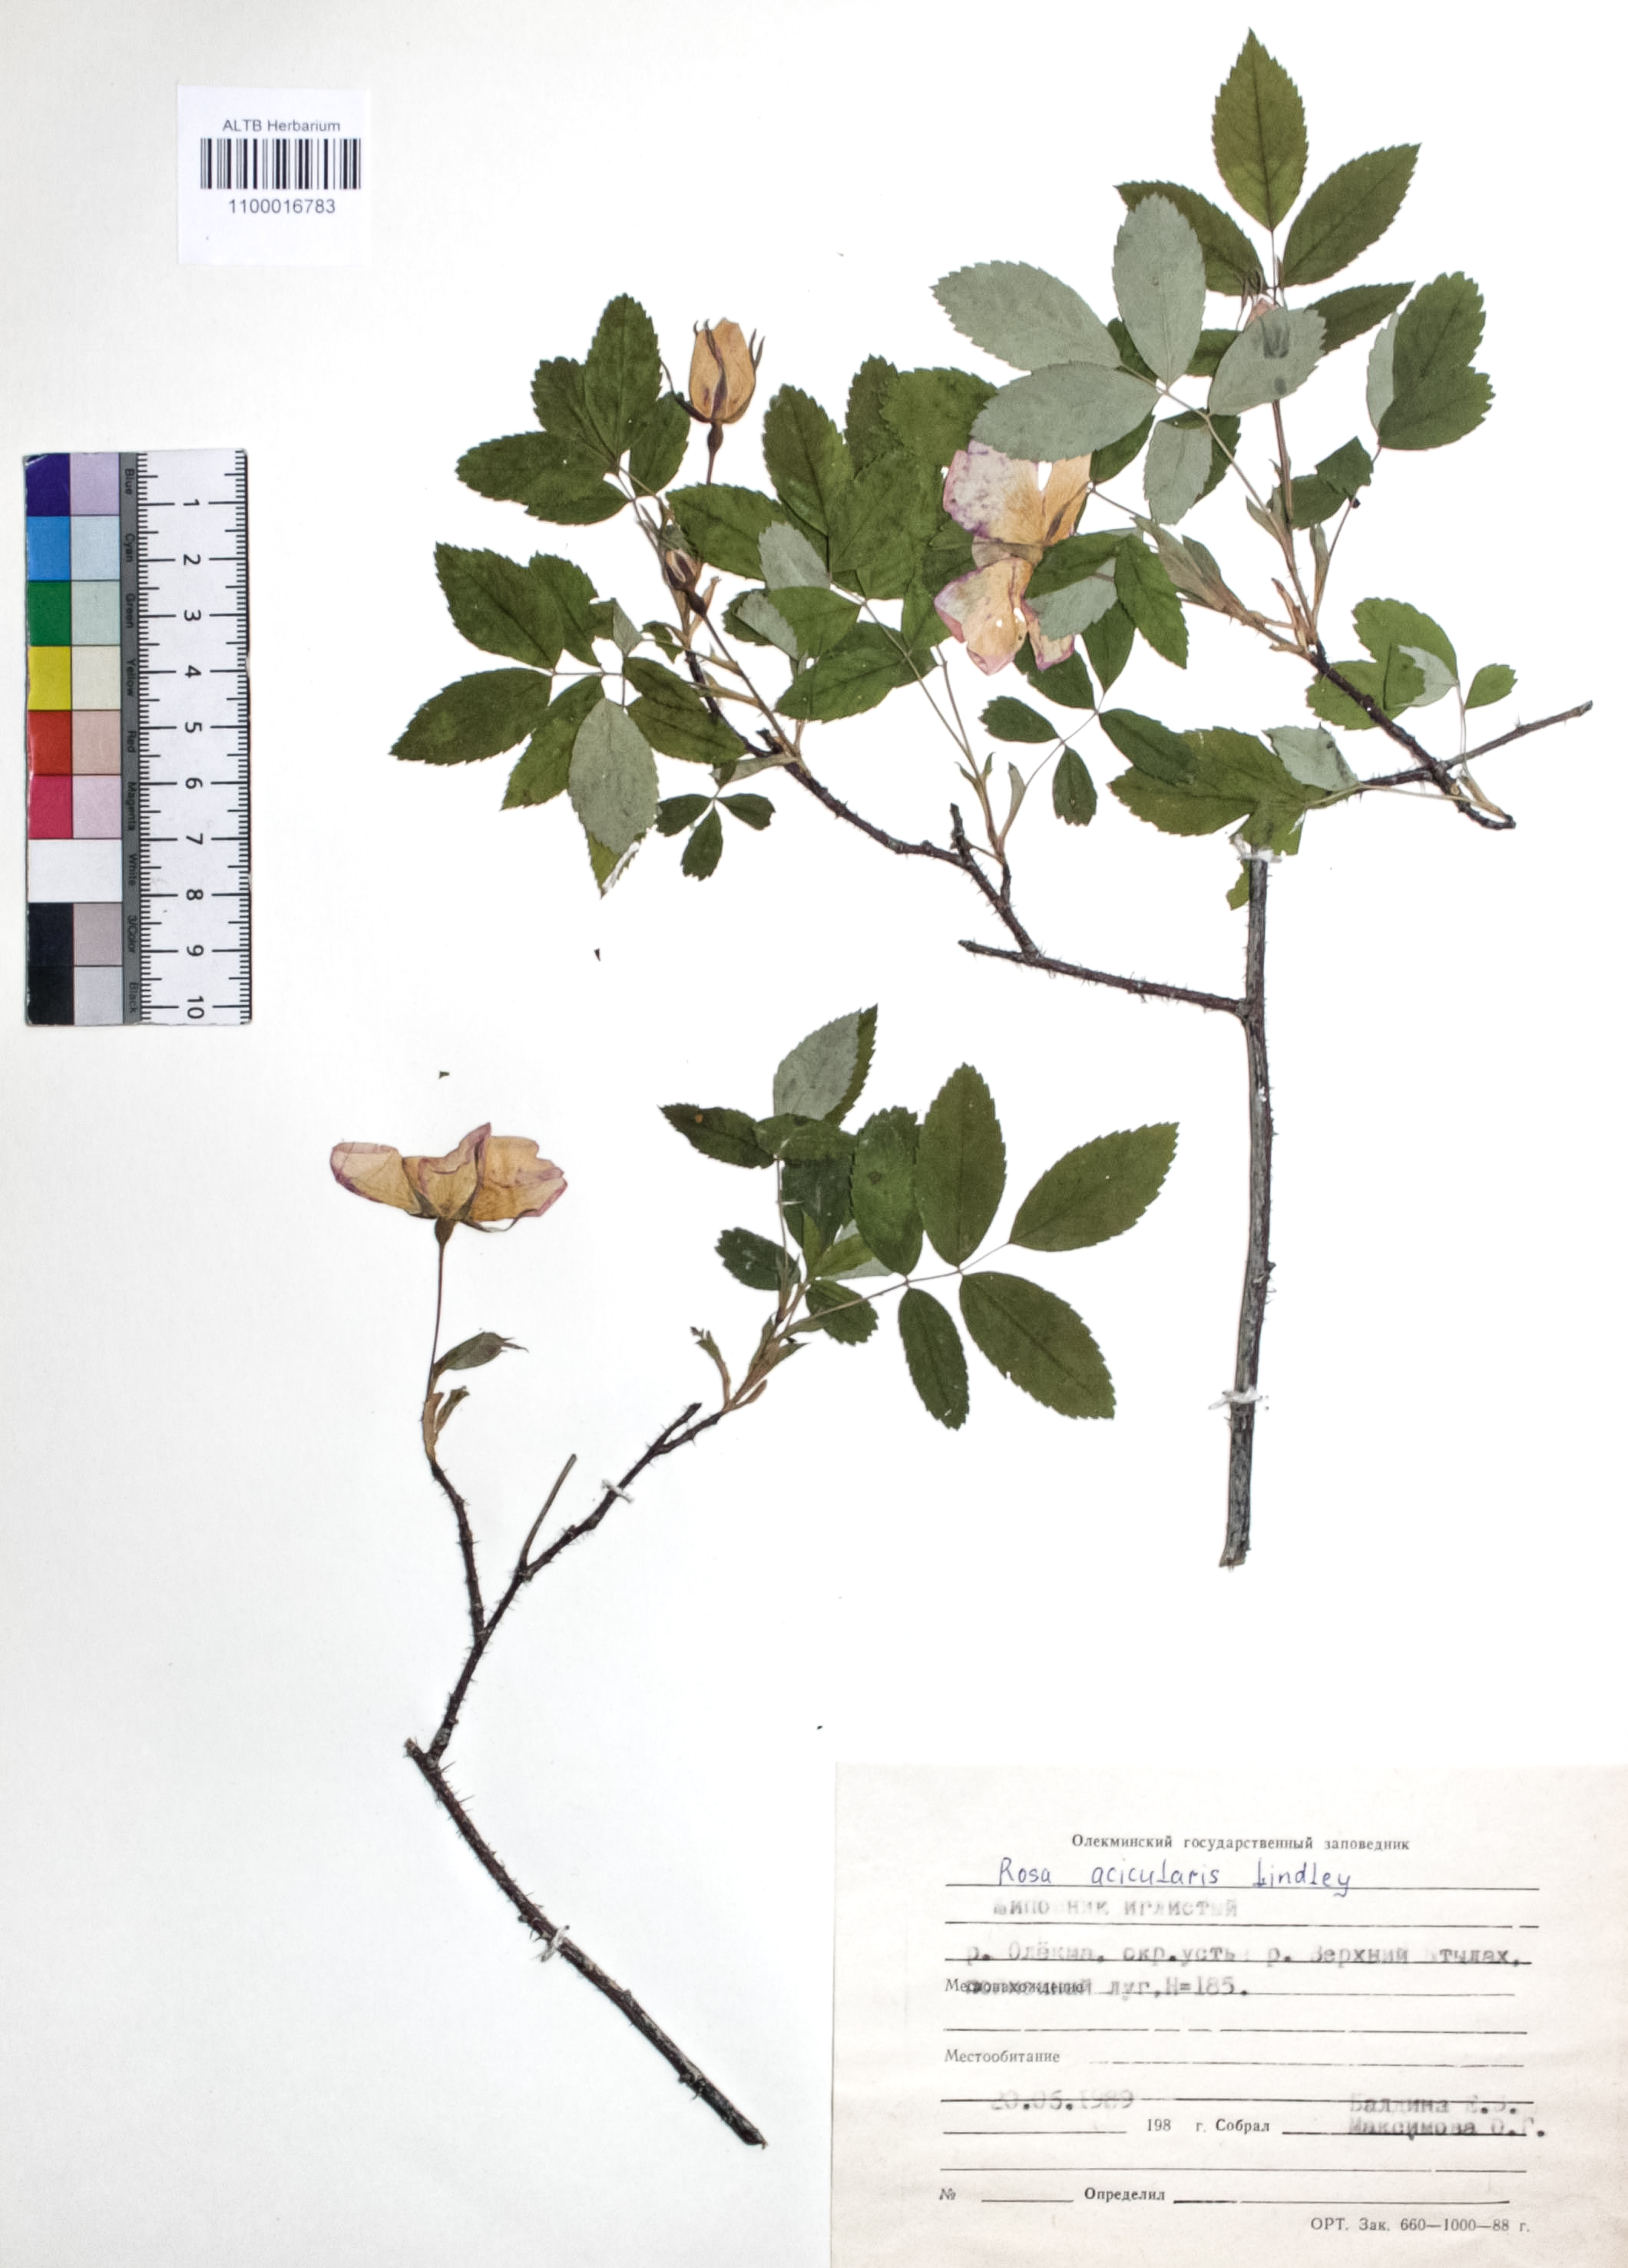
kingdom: Plantae
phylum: Tracheophyta
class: Magnoliopsida
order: Rosales
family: Rosaceae
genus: Rosa
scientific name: Rosa acicularis
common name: Prickly rose
